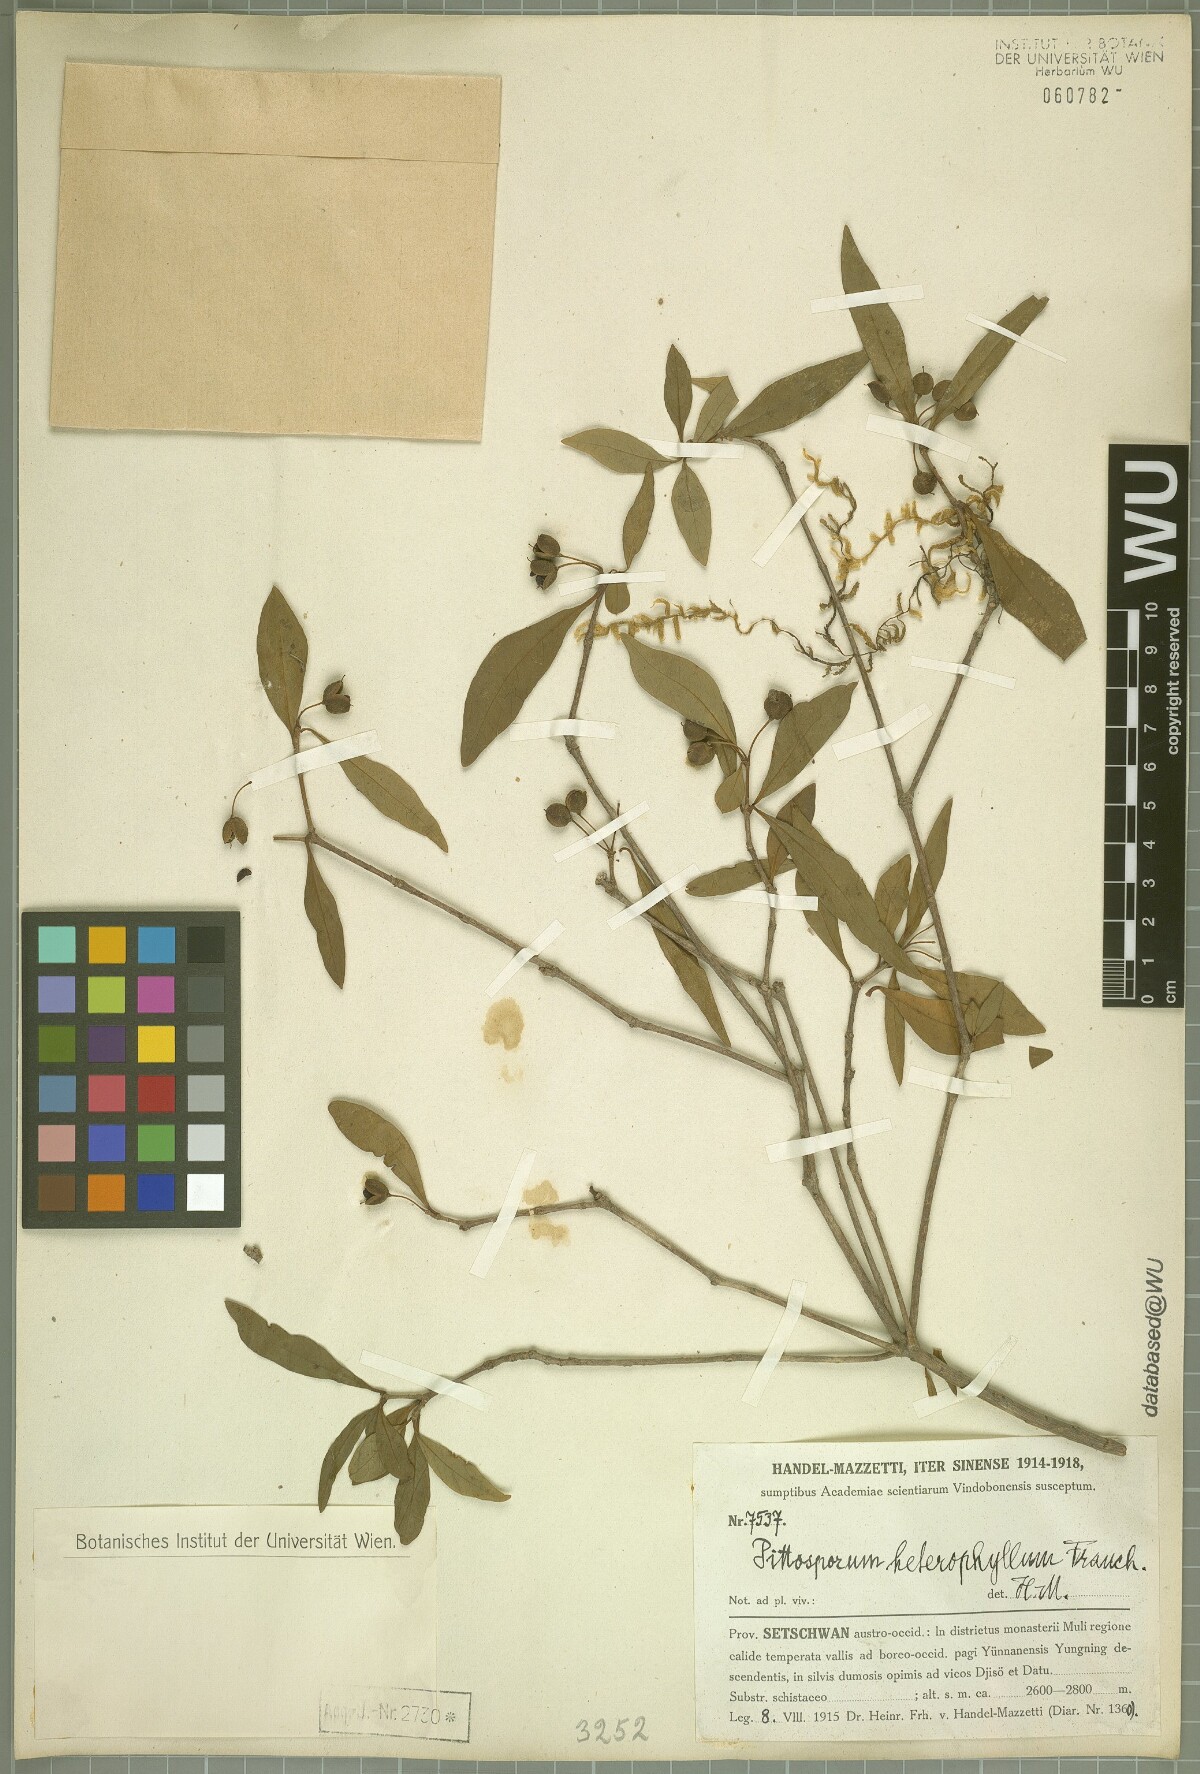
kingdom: Plantae
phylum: Tracheophyta
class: Magnoliopsida
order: Apiales
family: Pittosporaceae
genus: Pittosporum
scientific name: Pittosporum heterophyllum
